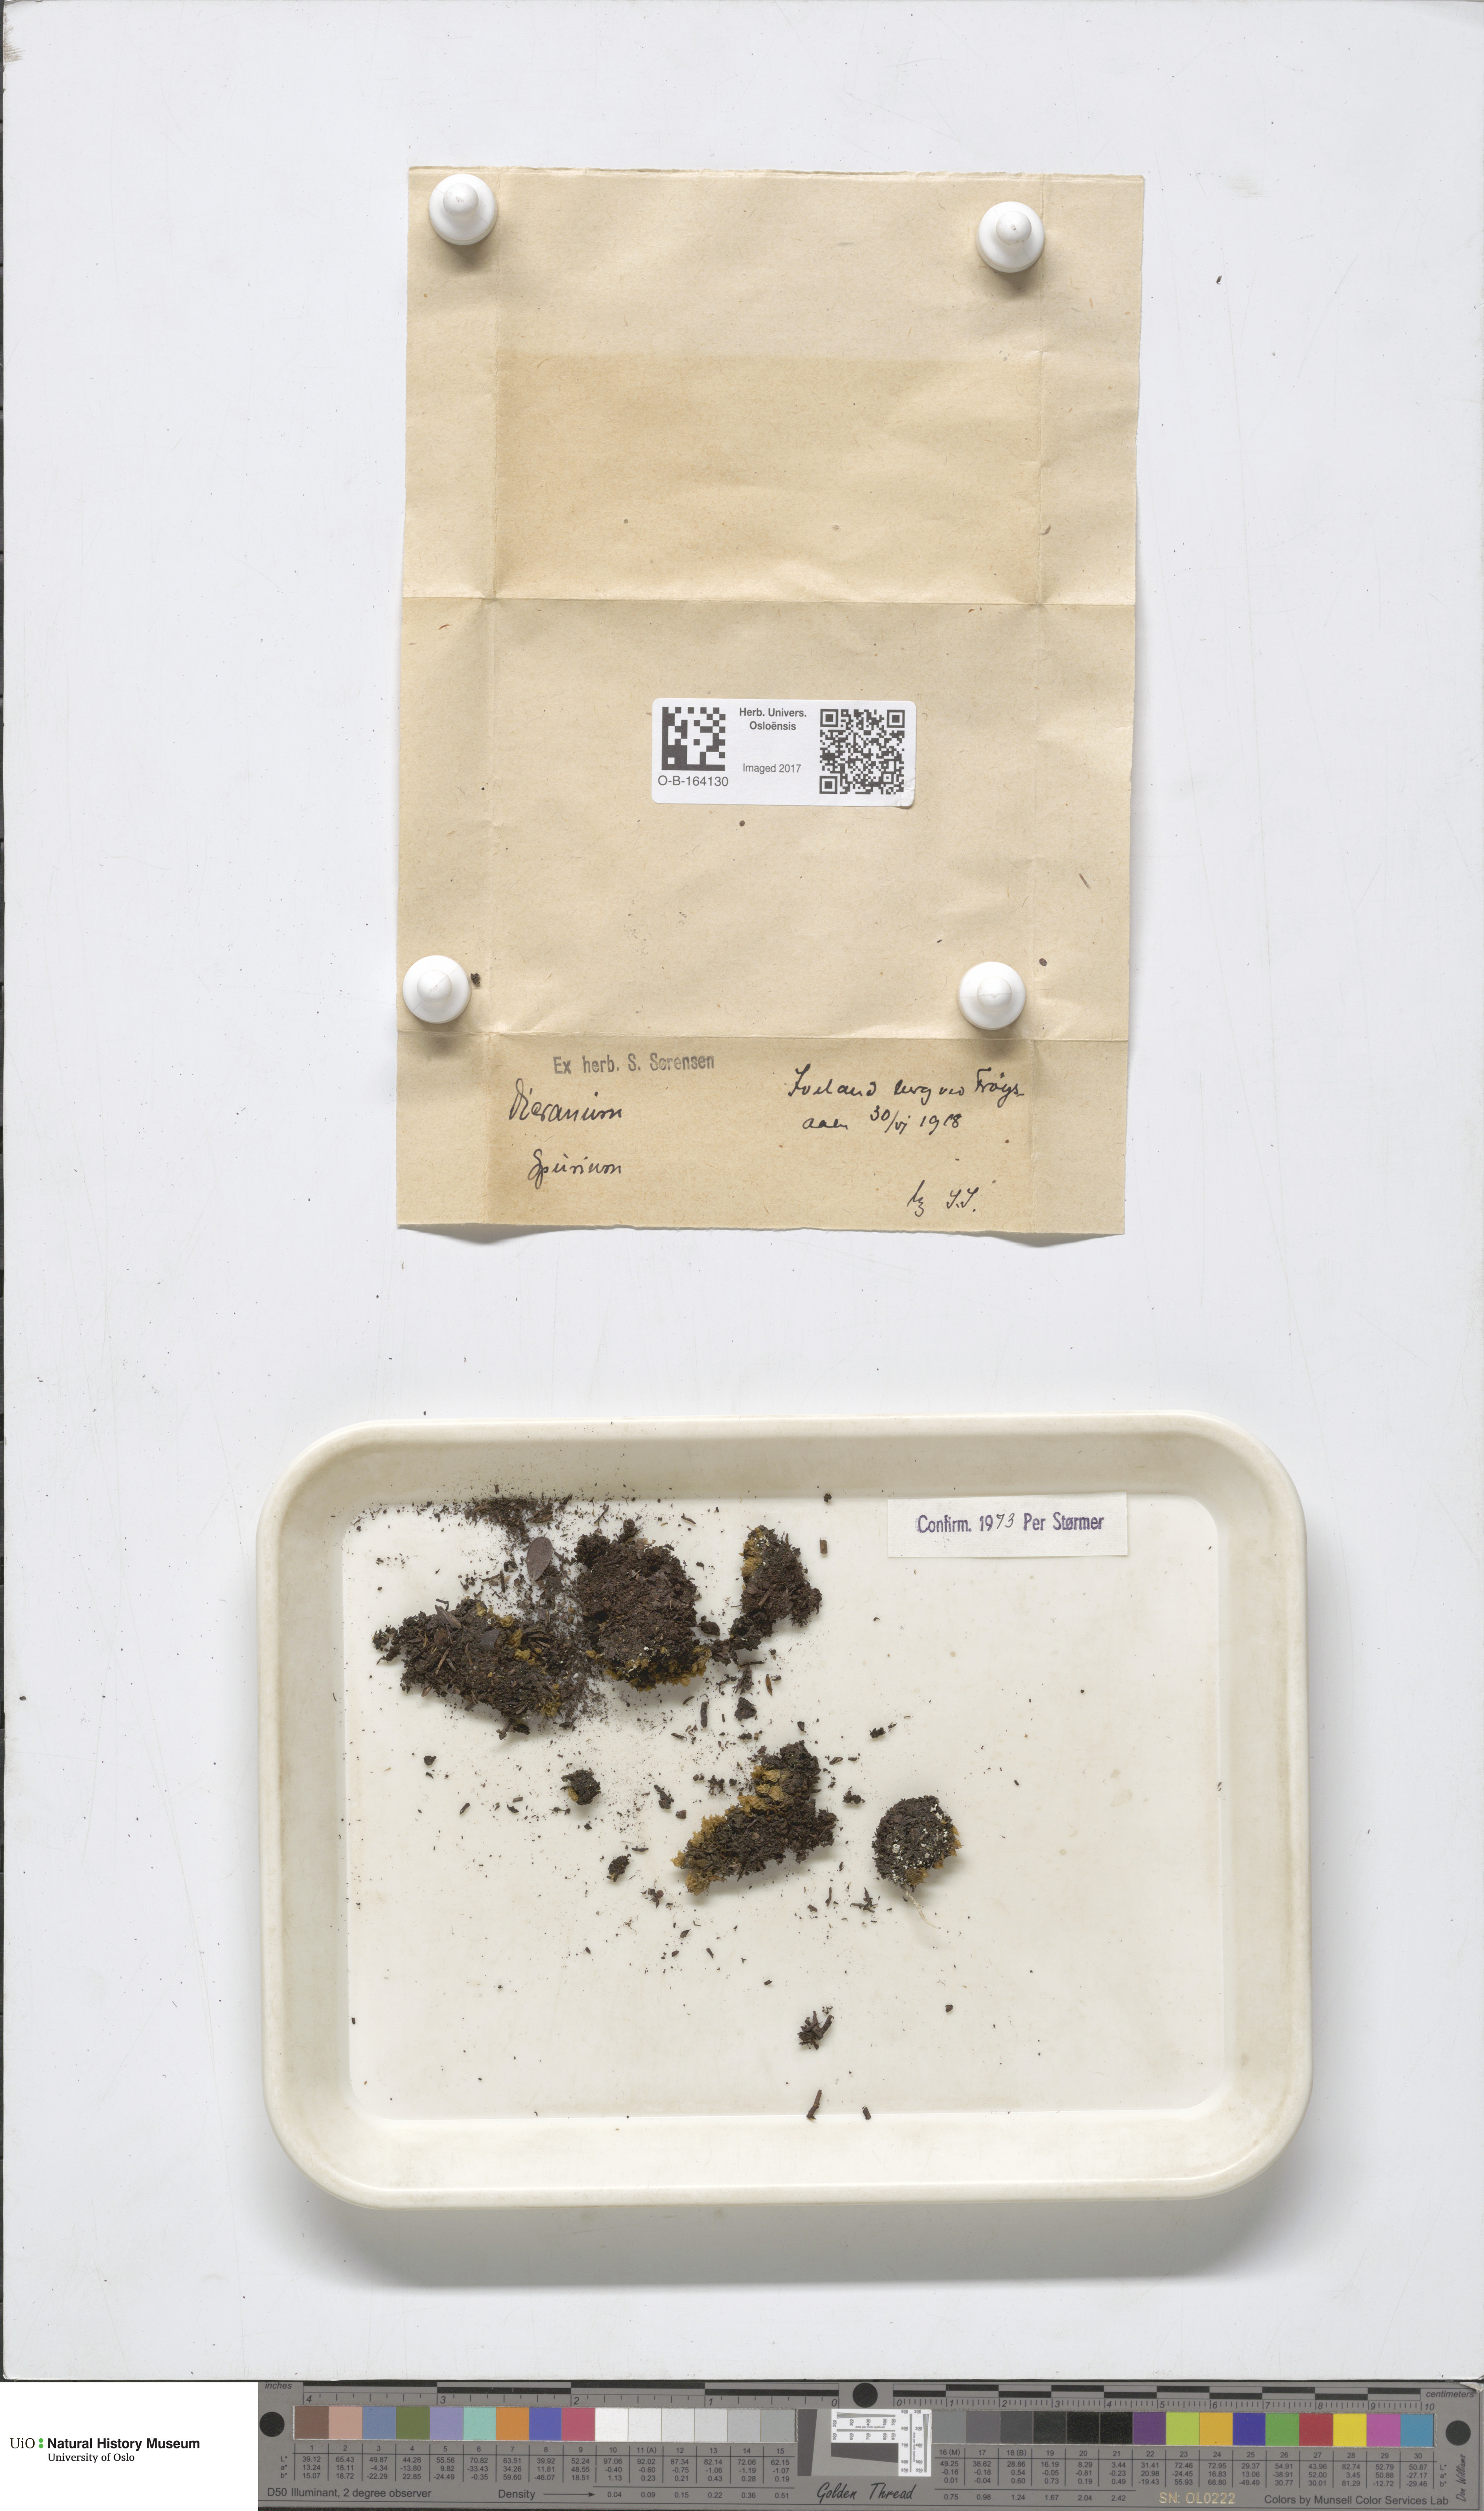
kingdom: Plantae
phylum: Bryophyta
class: Bryopsida
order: Dicranales
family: Dicranaceae
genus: Dicranum
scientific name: Dicranum spurium
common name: Spurred broom moss
